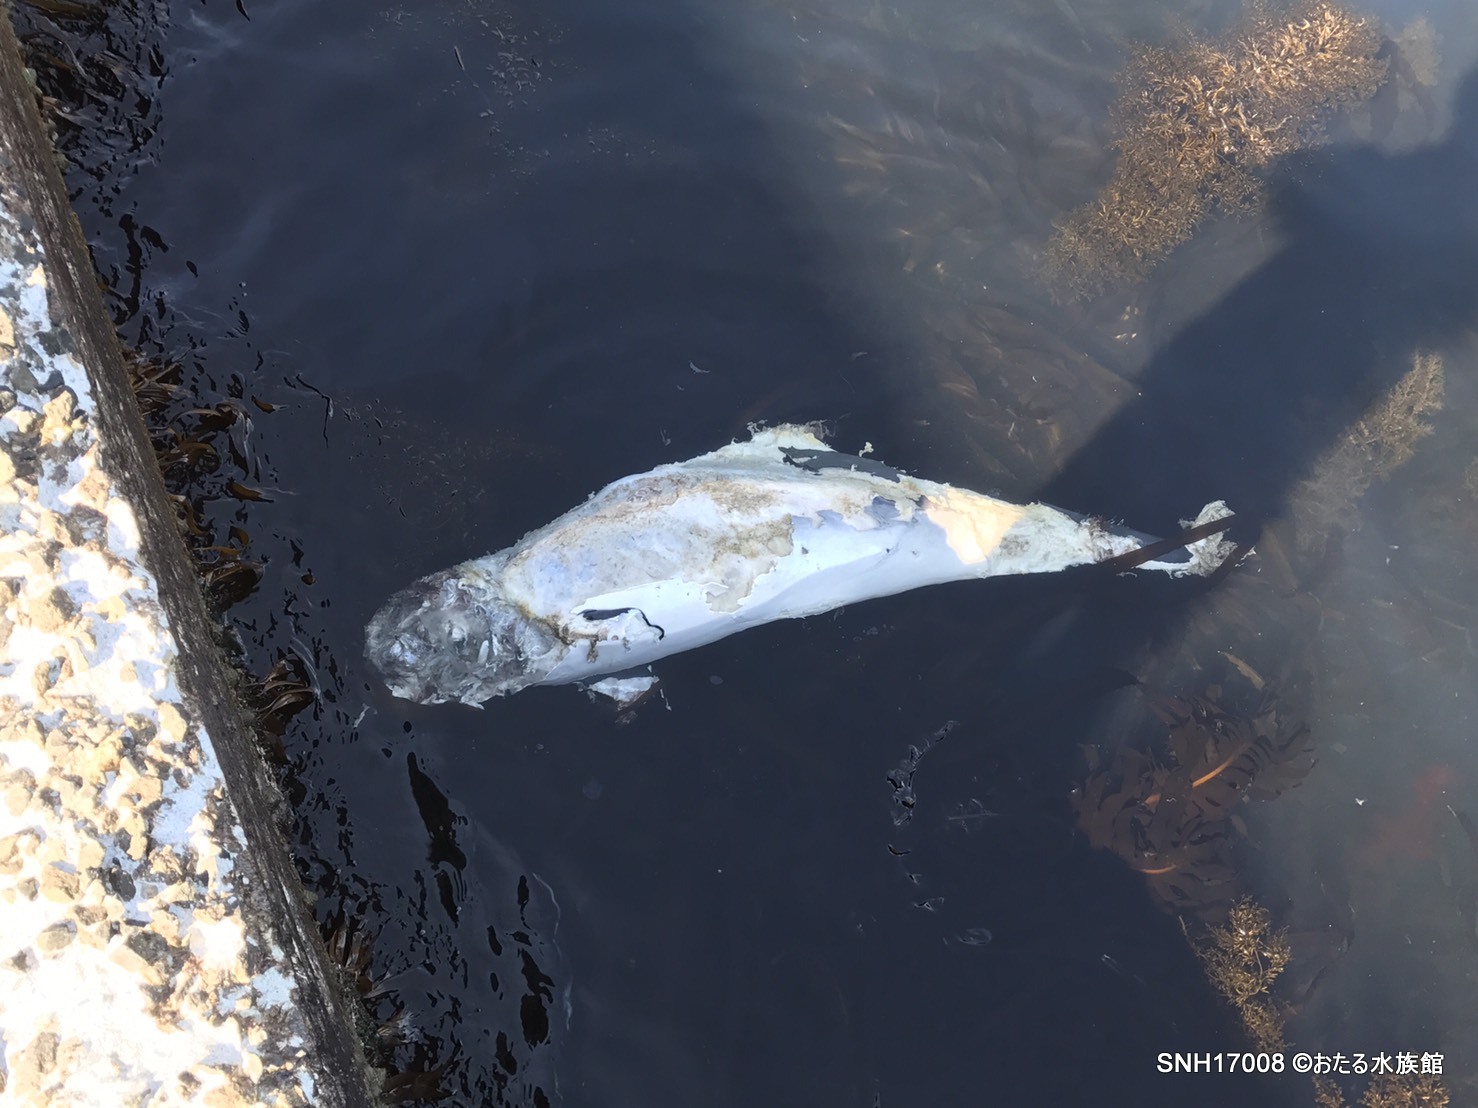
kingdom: Animalia
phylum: Chordata
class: Mammalia
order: Cetacea
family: Phocoenidae
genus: Phocoena
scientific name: Phocoena phocoena
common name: Harbour porpoise
